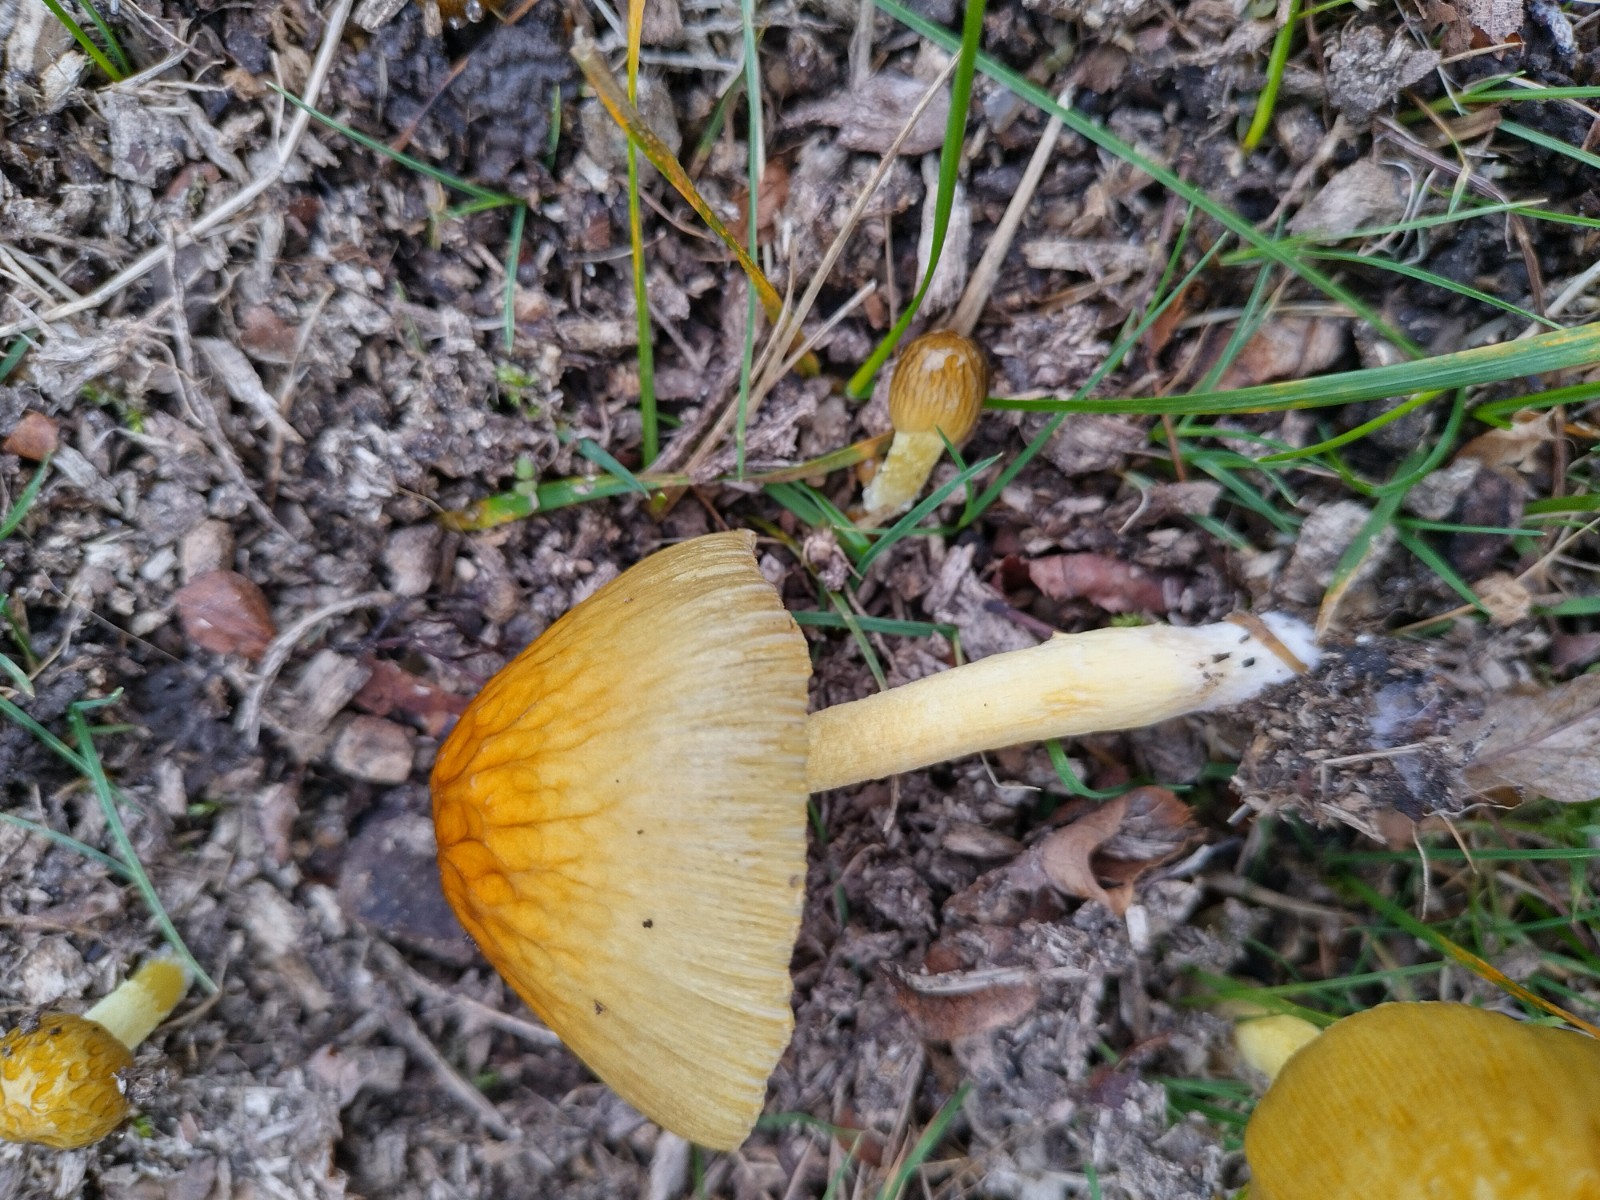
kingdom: Fungi
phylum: Basidiomycota
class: Agaricomycetes
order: Agaricales
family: Bolbitiaceae
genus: Bolbitius
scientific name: Bolbitius titubans
